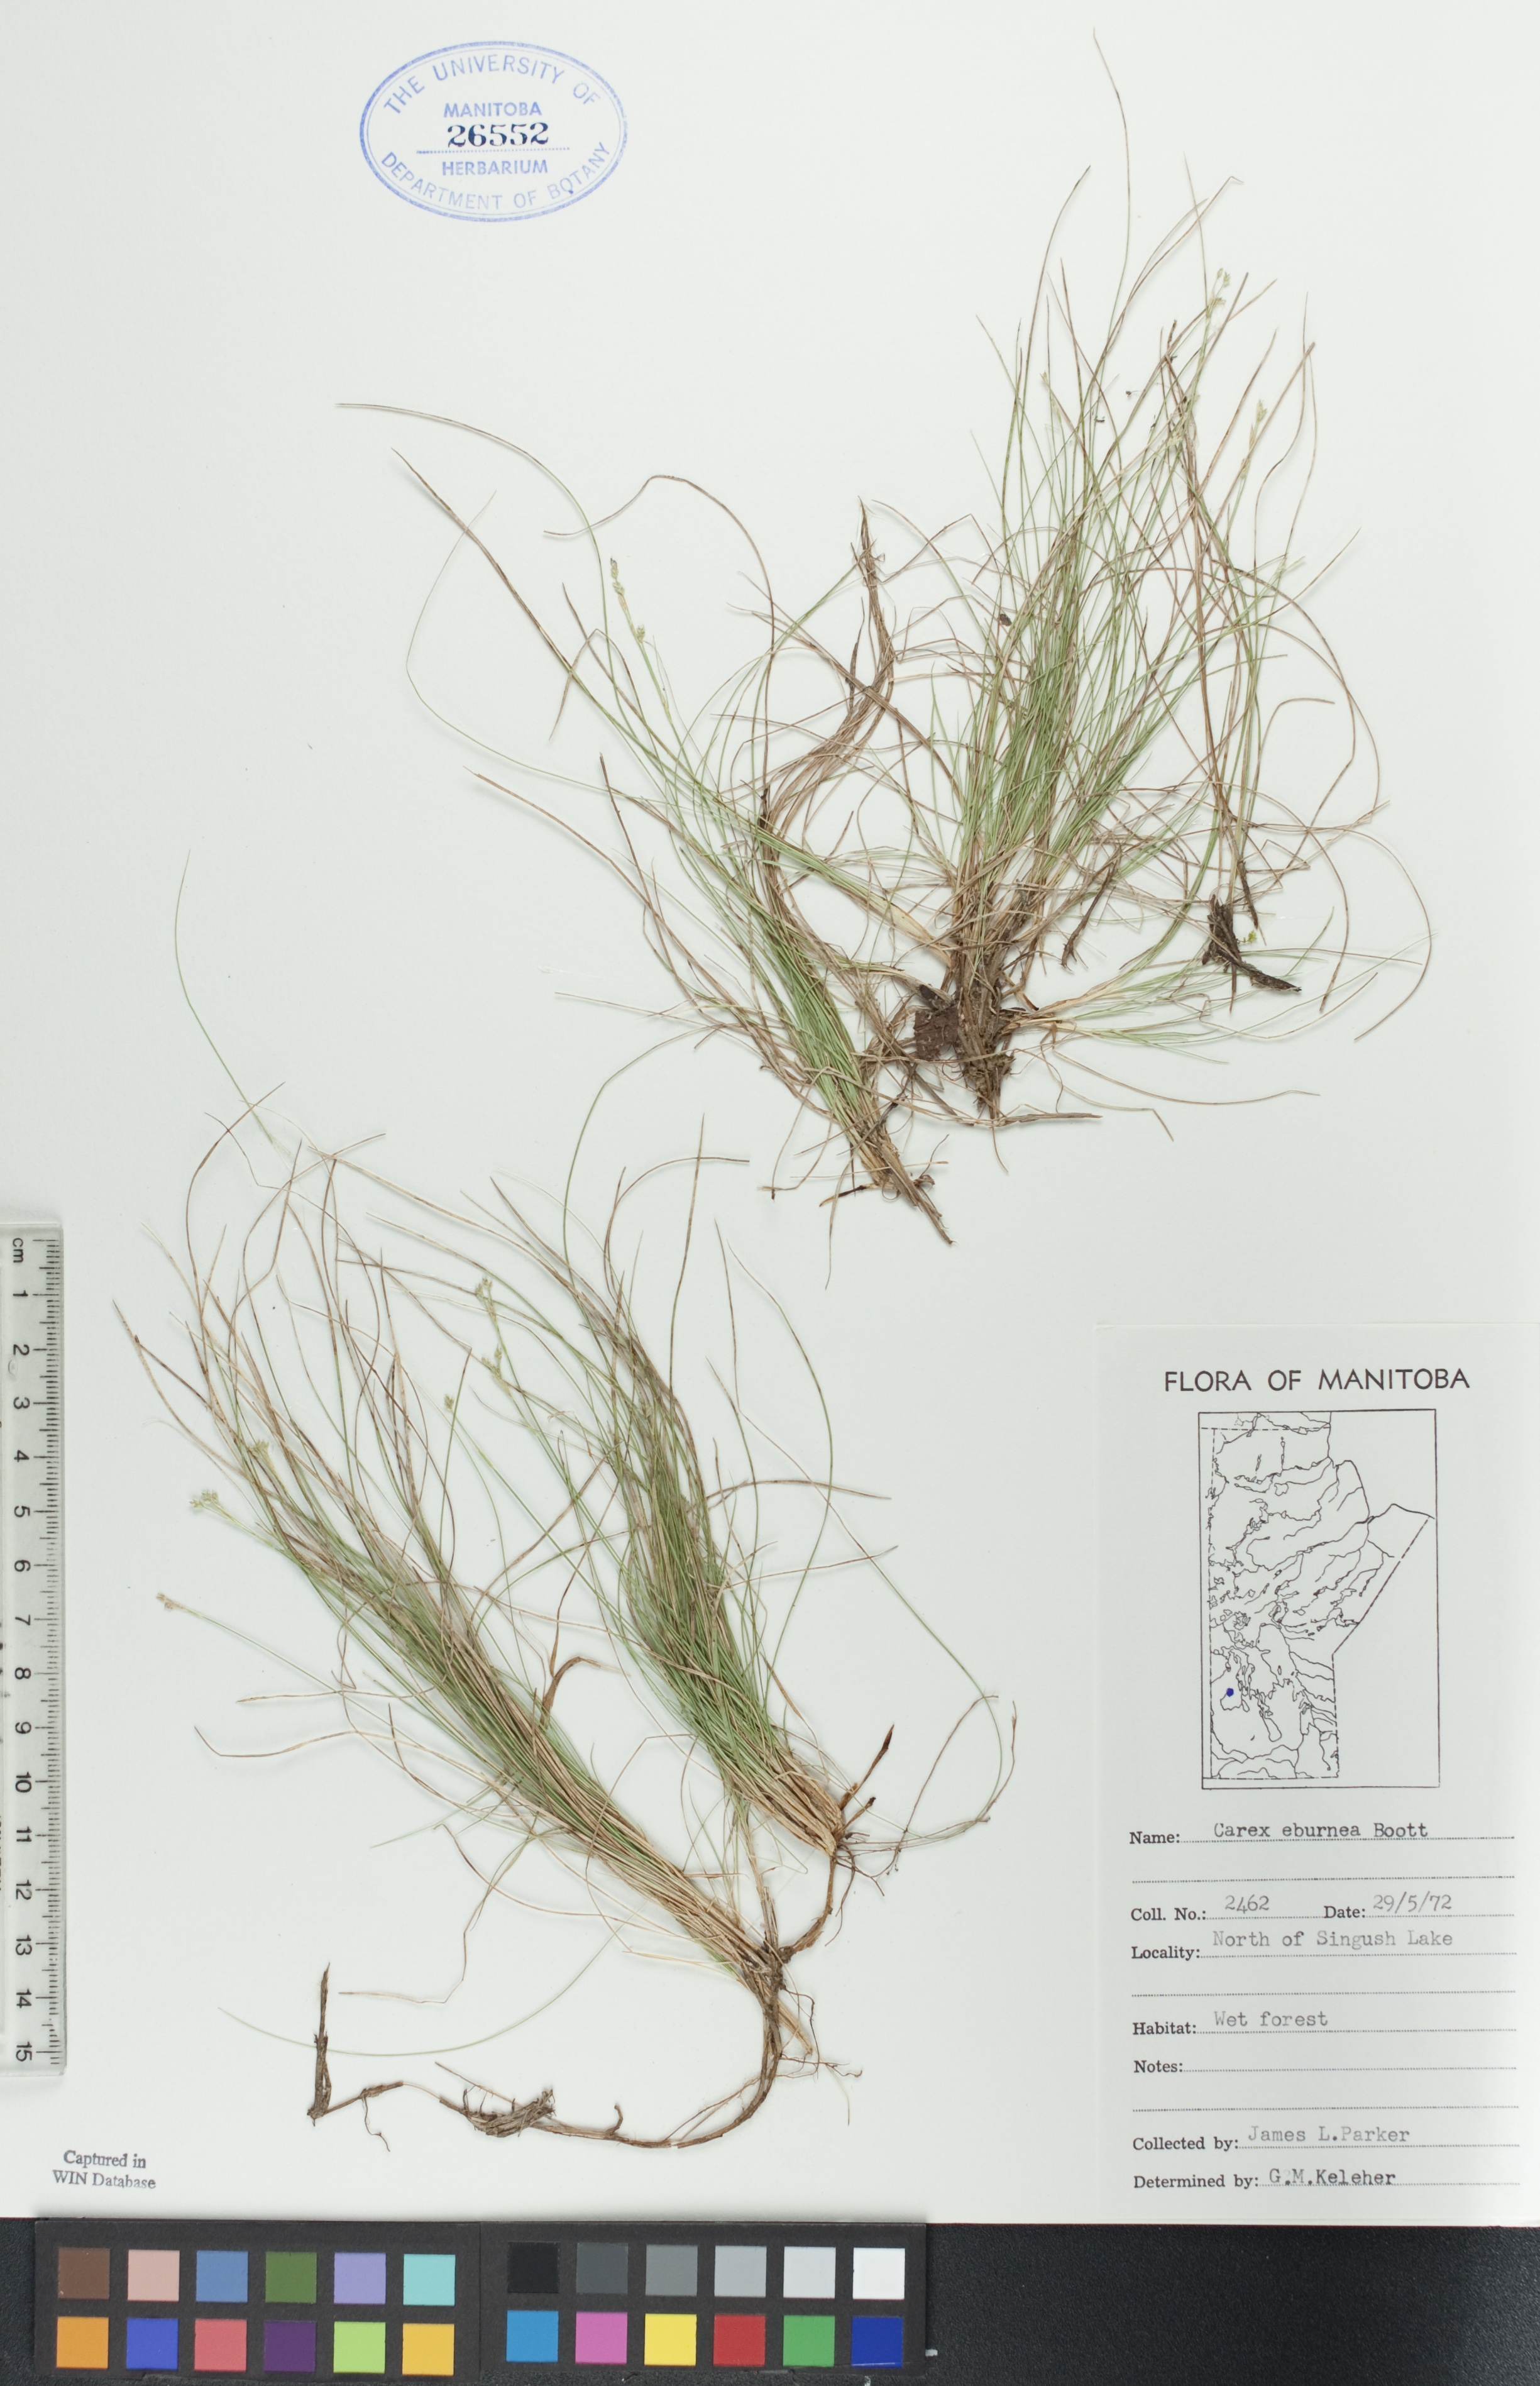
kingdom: Plantae
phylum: Tracheophyta
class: Liliopsida
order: Poales
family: Cyperaceae
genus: Carex
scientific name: Carex eburnea
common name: Bristle-leaved sedge
